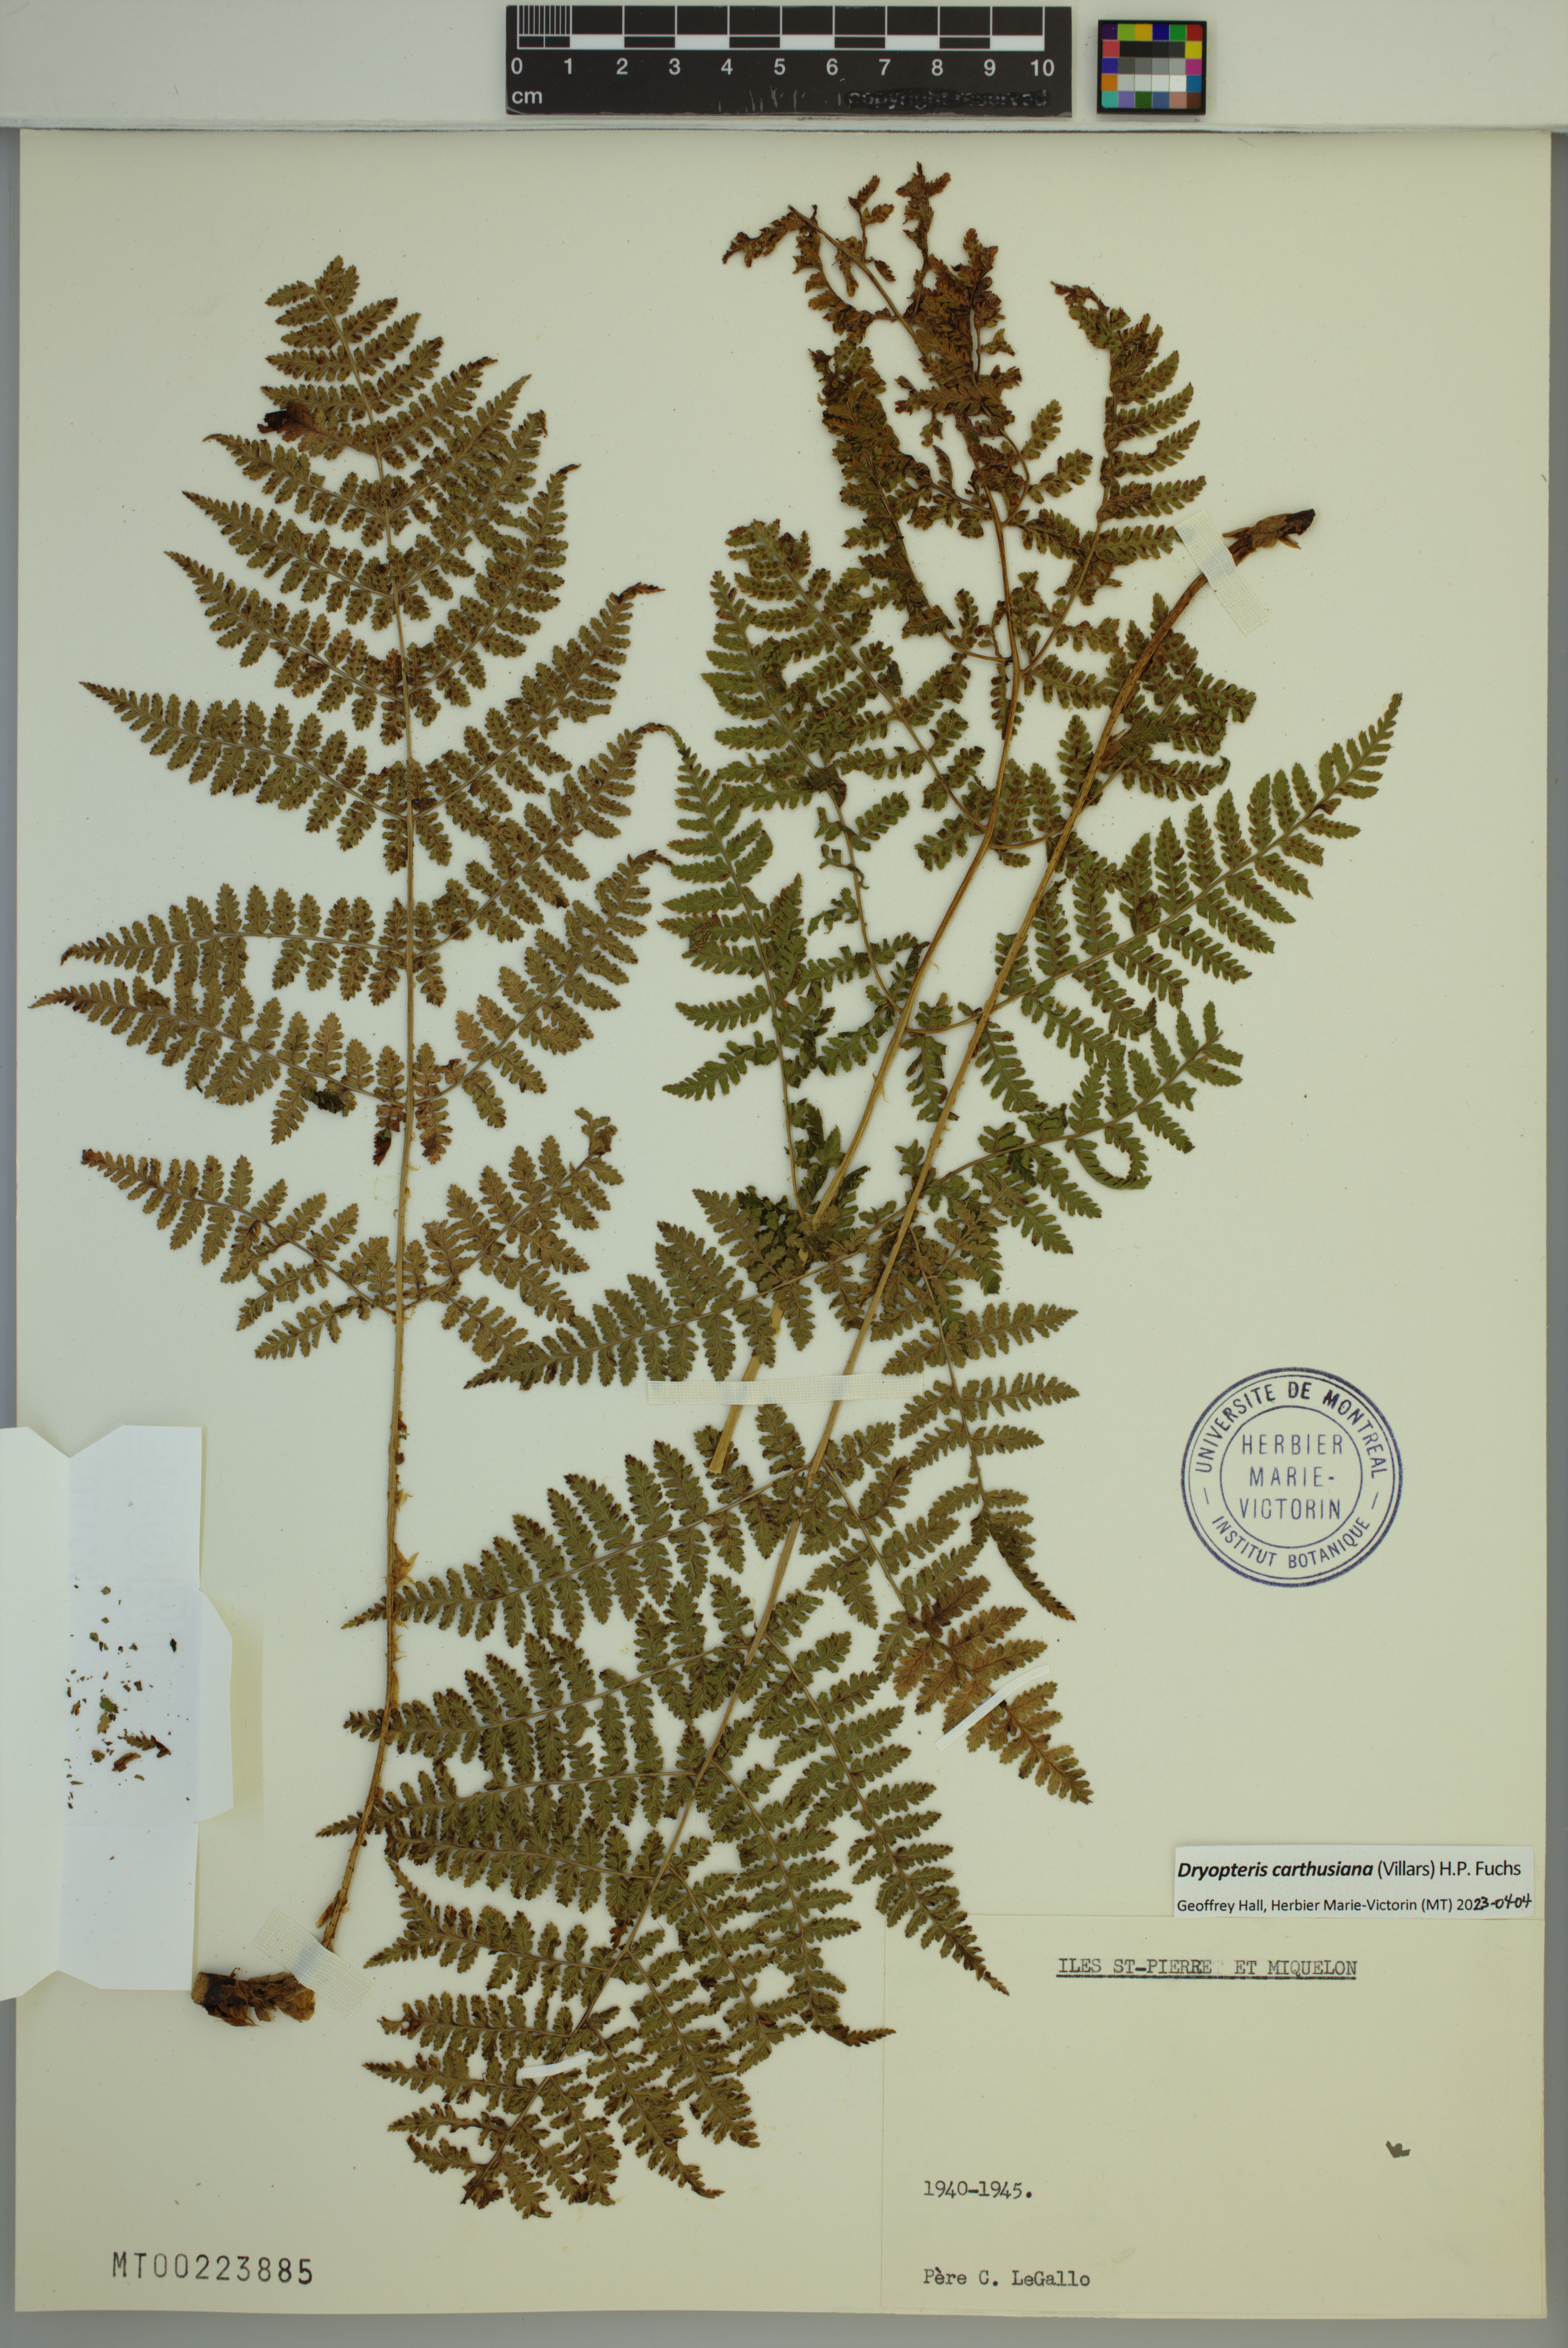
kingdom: Plantae
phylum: Tracheophyta
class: Polypodiopsida
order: Polypodiales
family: Dryopteridaceae
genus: Dryopteris
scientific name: Dryopteris carthusiana
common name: Narrow buckler-fern
